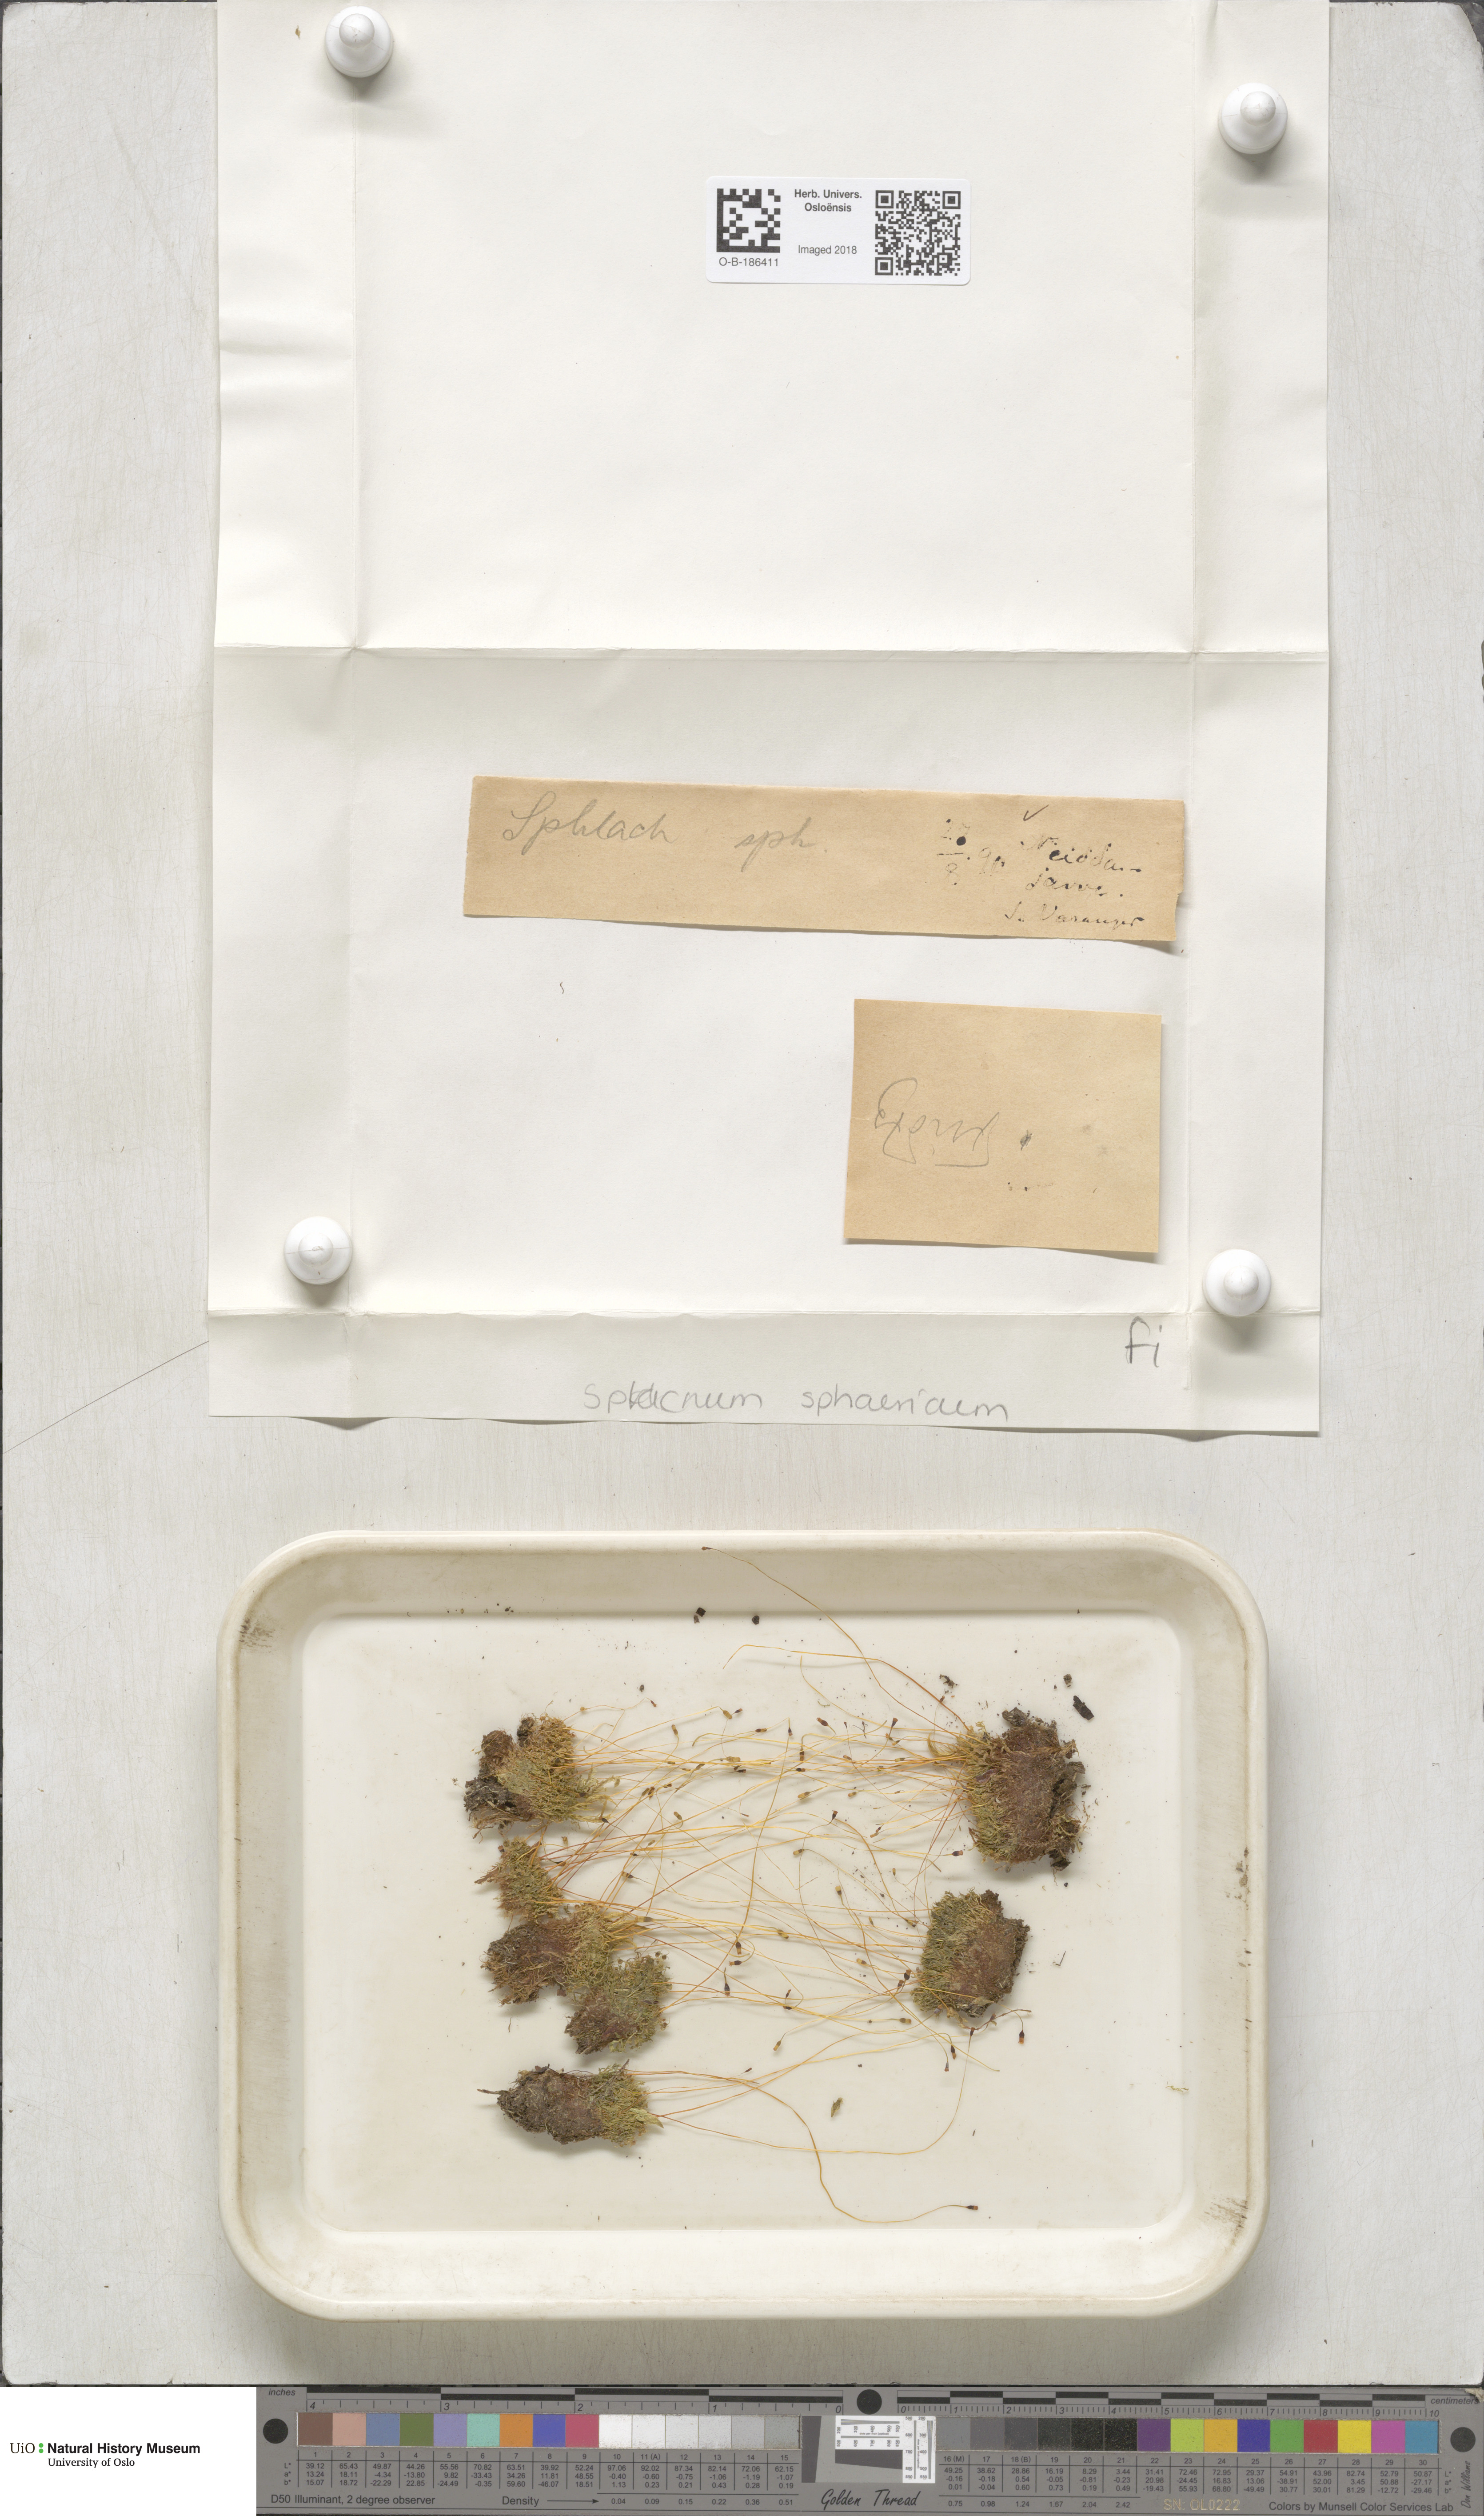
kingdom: Plantae
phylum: Bryophyta
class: Bryopsida
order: Splachnales
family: Splachnaceae
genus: Splachnum
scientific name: Splachnum sphaericum
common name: Round-fruited dung moss
